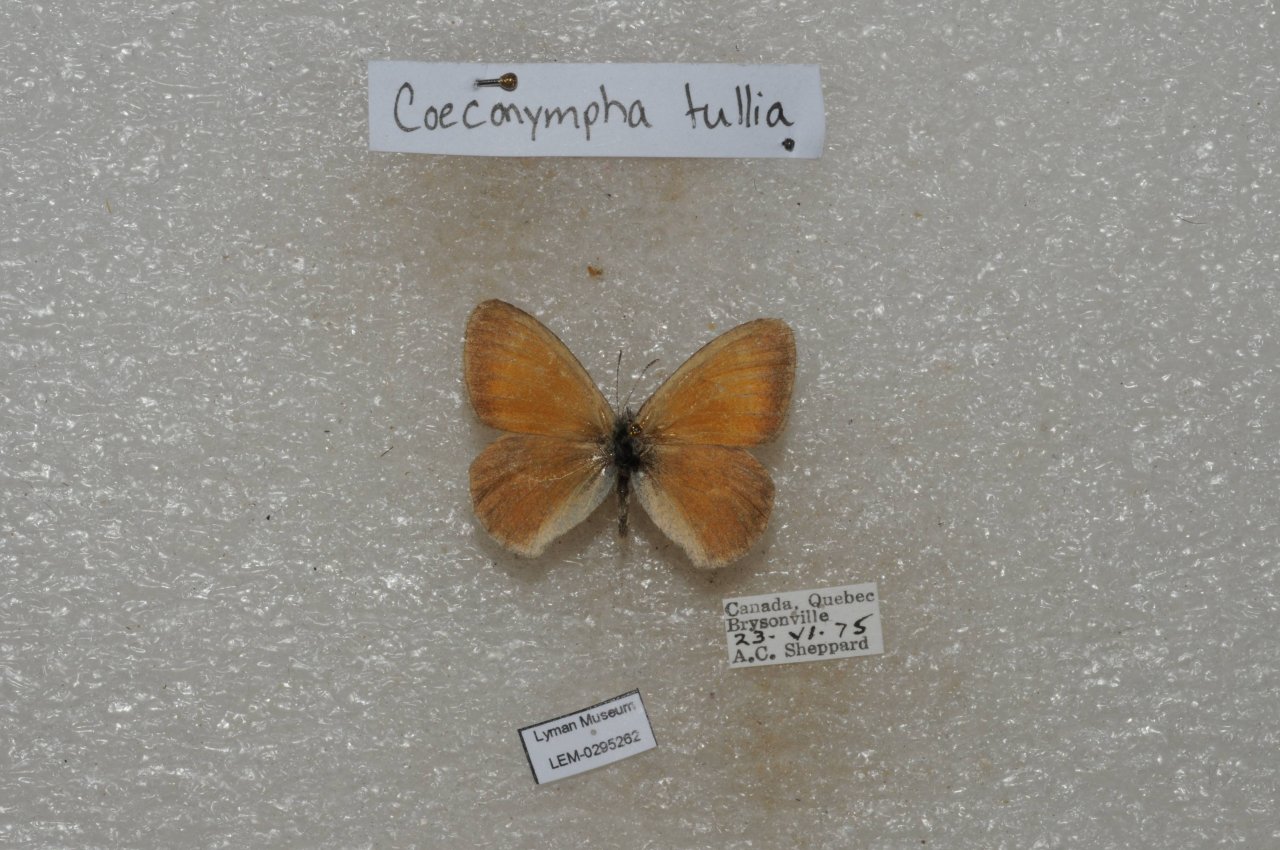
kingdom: Animalia
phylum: Arthropoda
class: Insecta
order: Lepidoptera
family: Nymphalidae
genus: Coenonympha
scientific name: Coenonympha tullia
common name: Large Heath
